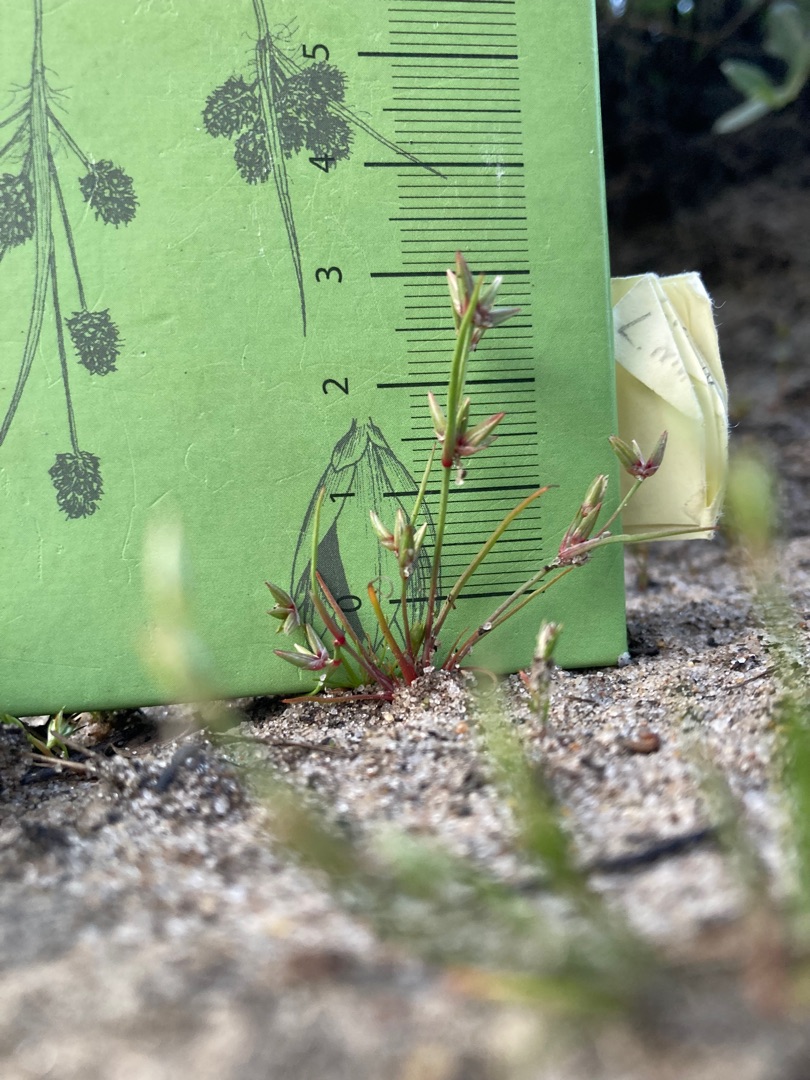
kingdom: Plantae
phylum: Tracheophyta
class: Liliopsida
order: Poales
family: Juncaceae
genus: Juncus
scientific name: Juncus pygmaeus
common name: Dværg-siv
